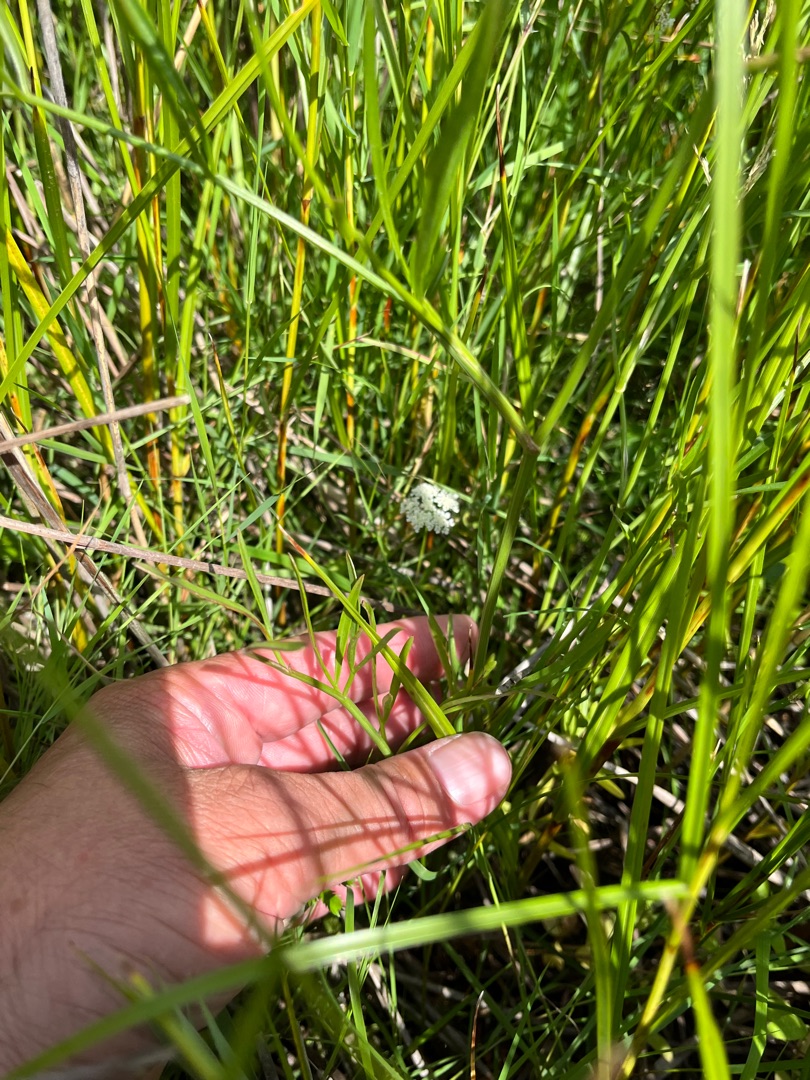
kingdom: Plantae
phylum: Tracheophyta
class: Magnoliopsida
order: Apiales
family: Apiaceae
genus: Oenanthe
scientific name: Oenanthe lachenalii
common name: Eng-klaseskærm
